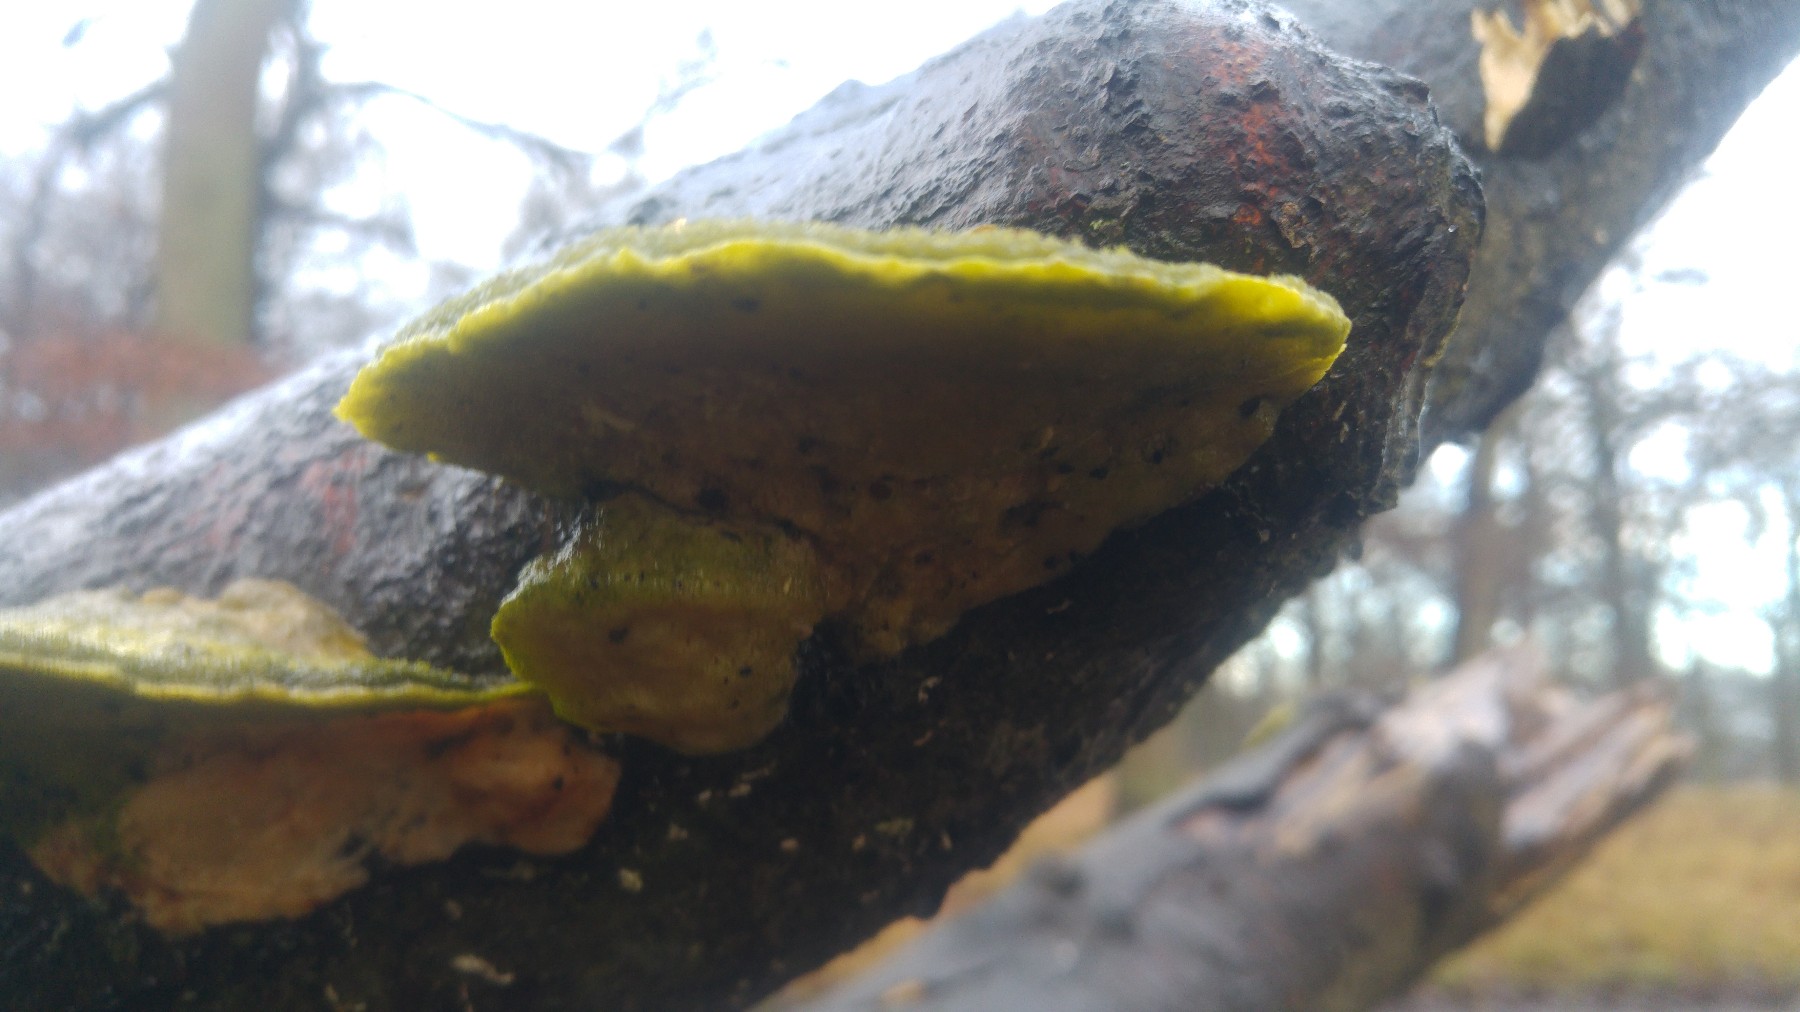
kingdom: Fungi
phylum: Basidiomycota
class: Agaricomycetes
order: Polyporales
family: Polyporaceae
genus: Trametes
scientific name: Trametes hirsuta
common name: håret læderporesvamp
